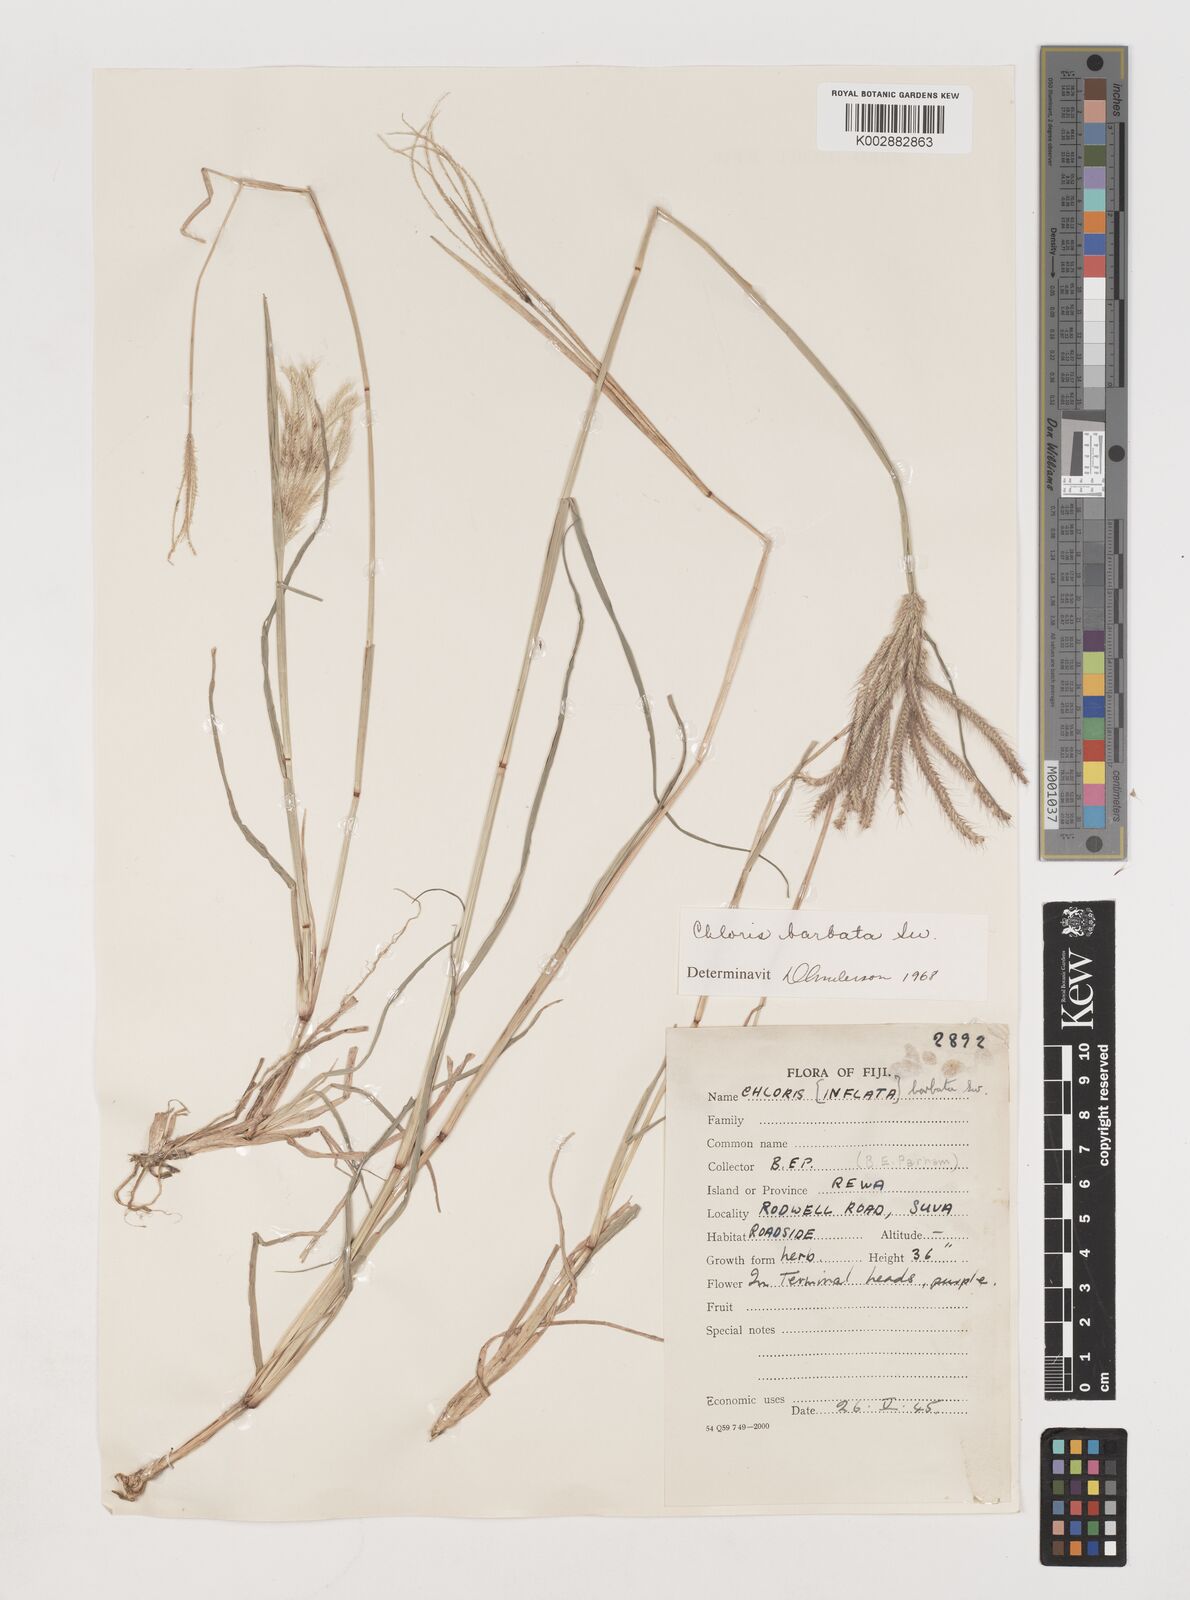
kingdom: Plantae
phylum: Tracheophyta
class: Liliopsida
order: Poales
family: Poaceae
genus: Chloris
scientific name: Chloris barbata
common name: Swollen fingergrass
